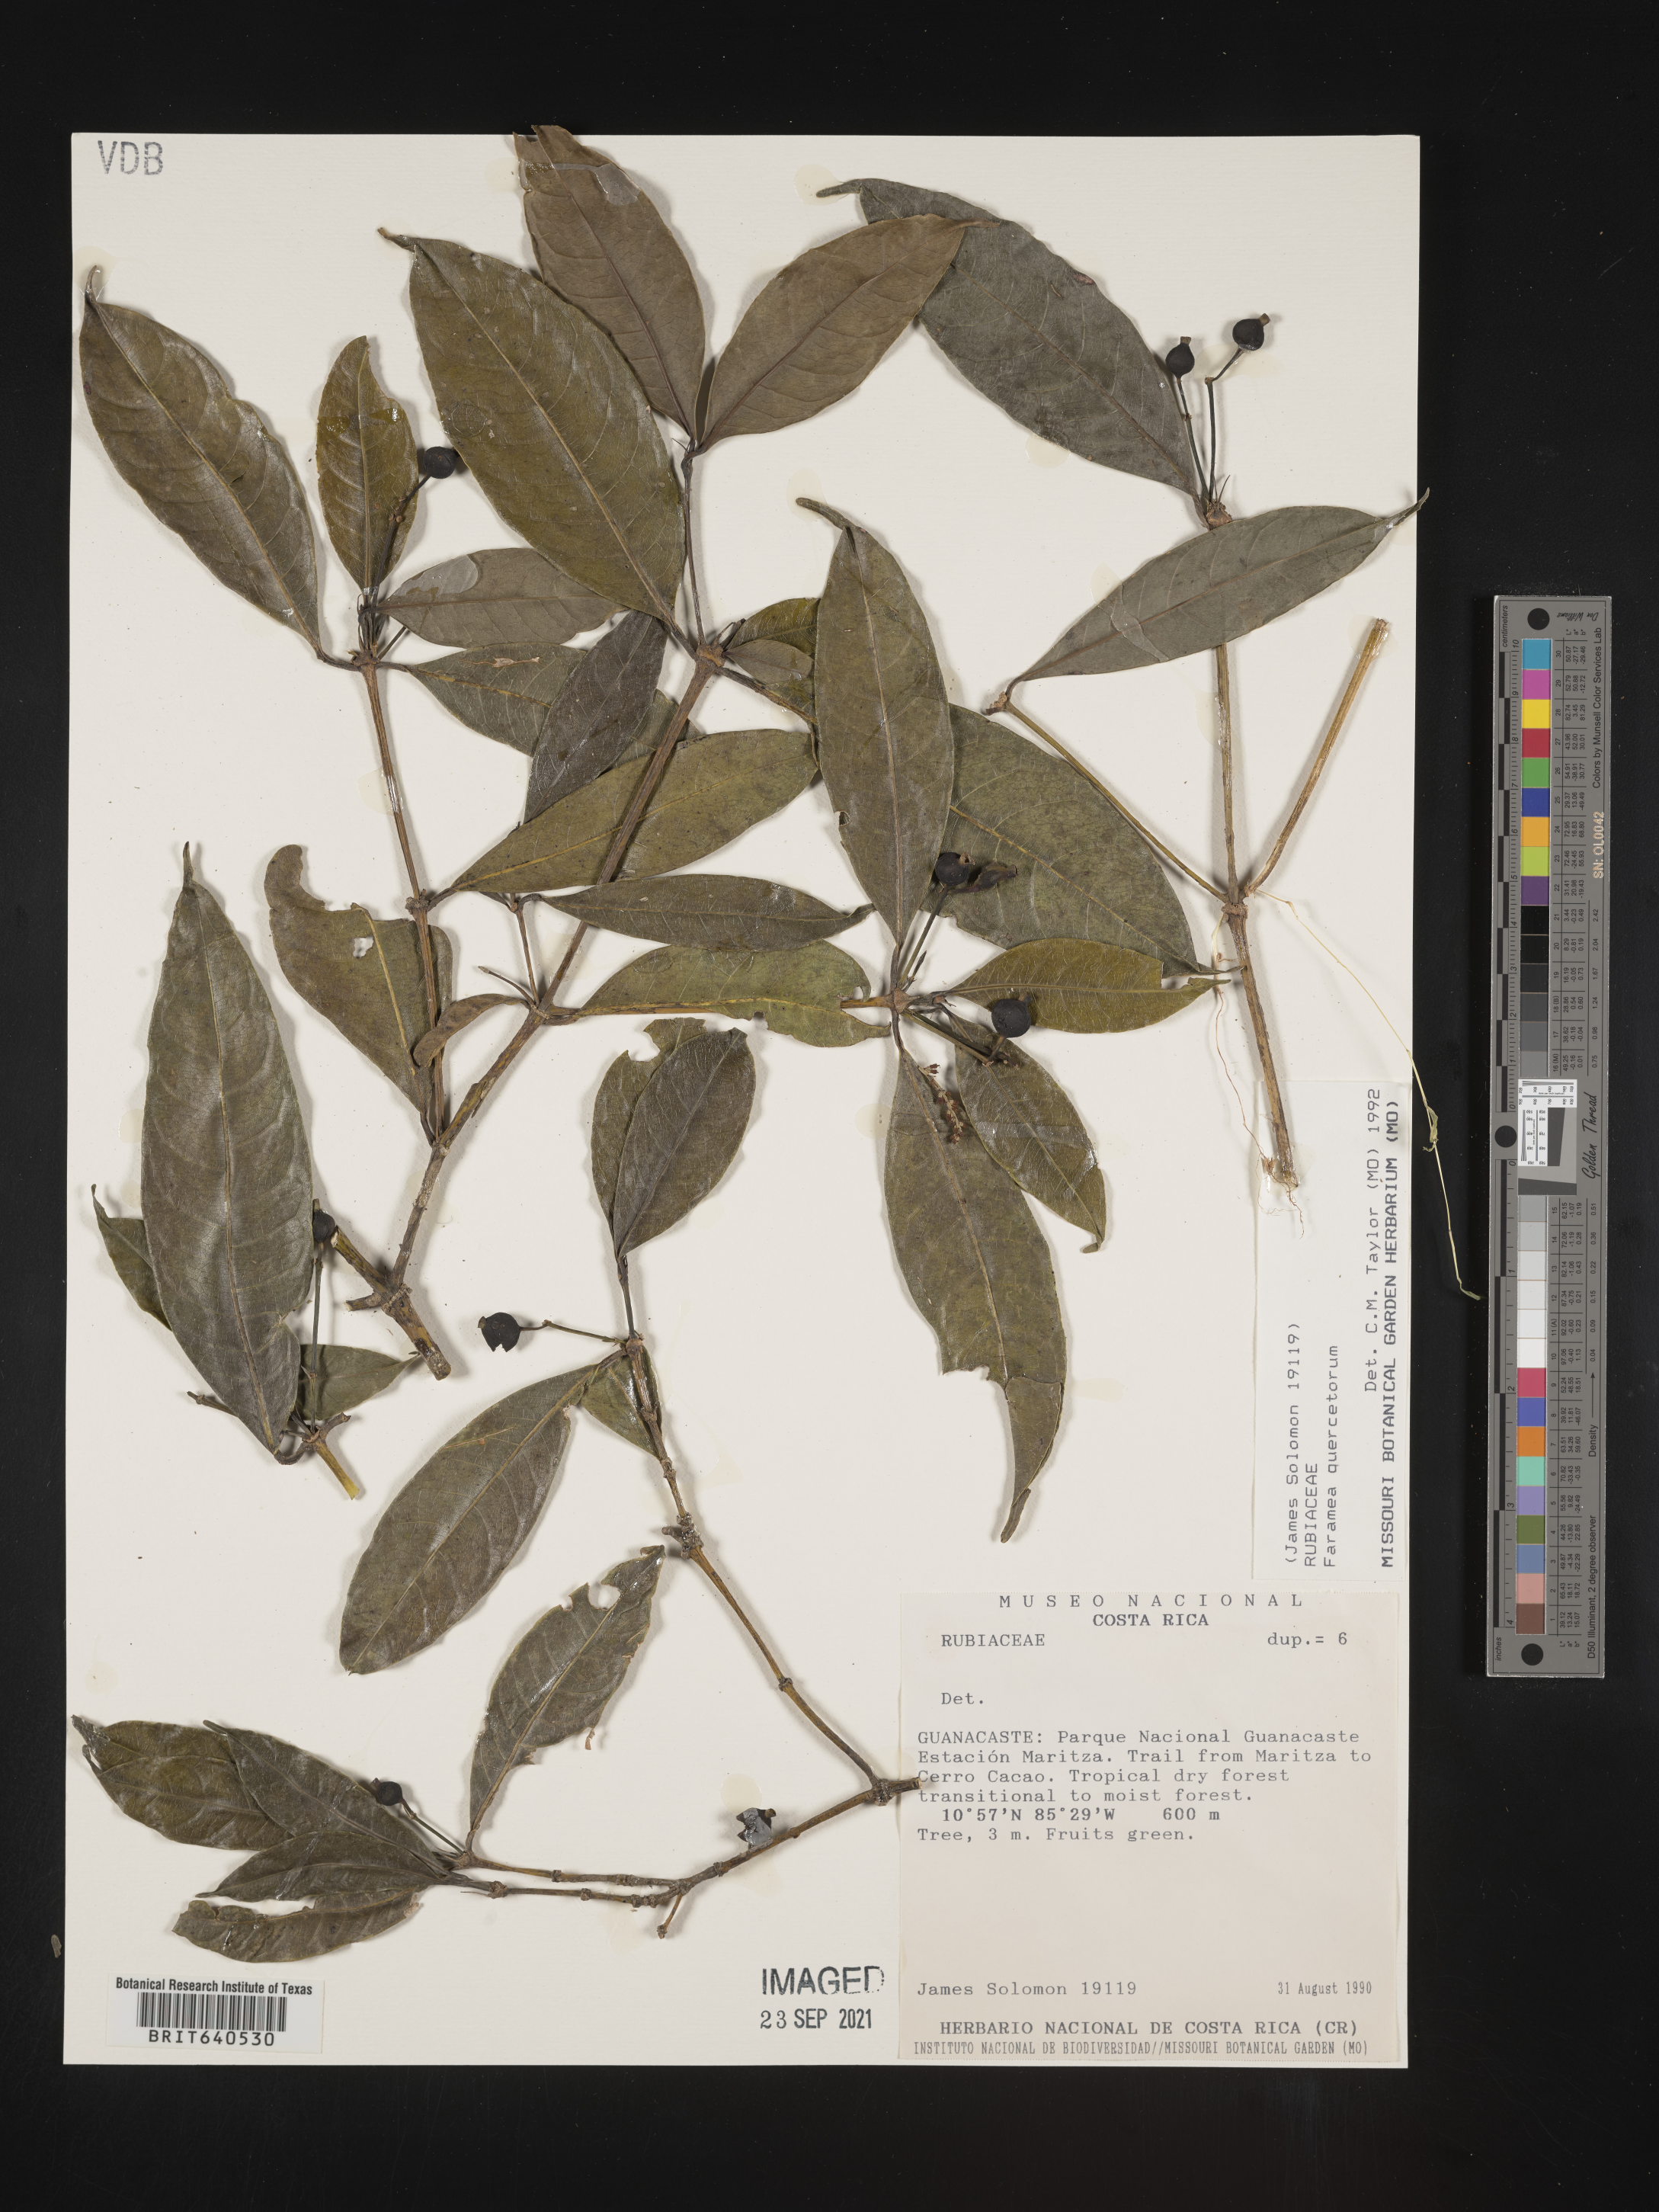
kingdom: Plantae
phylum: Tracheophyta
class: Magnoliopsida
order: Gentianales
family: Rubiaceae
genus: Faramea
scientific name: Faramea
